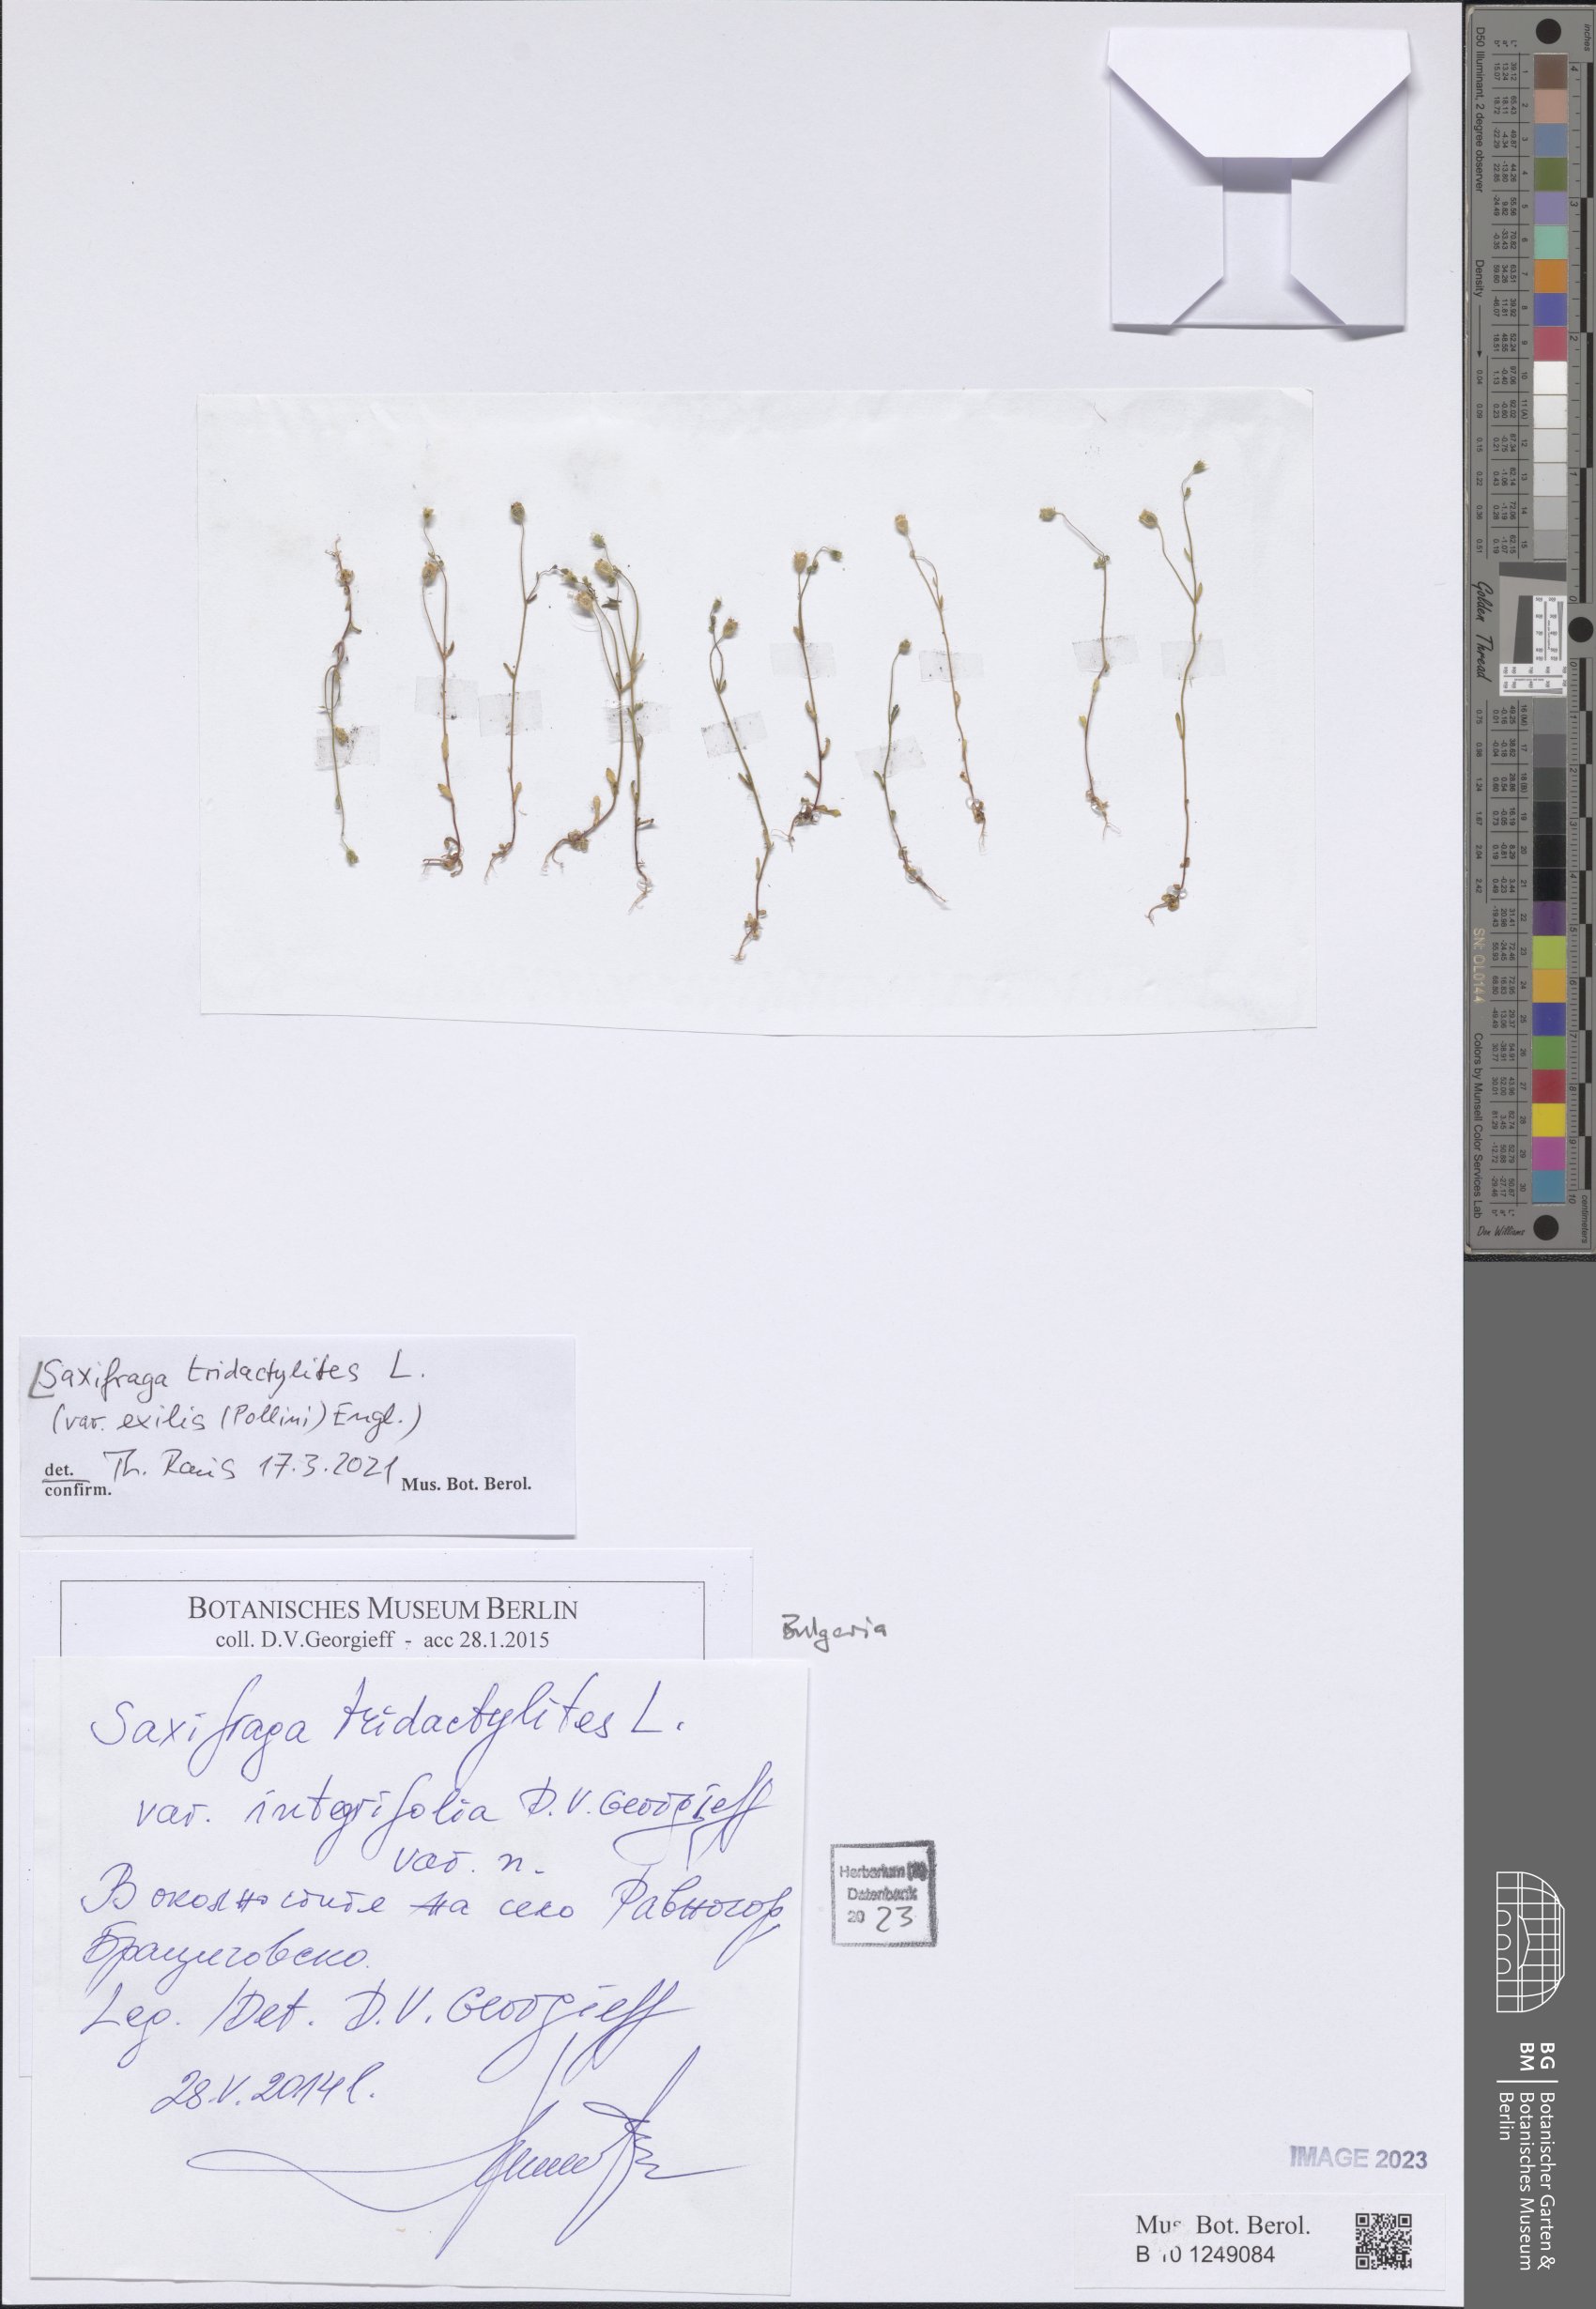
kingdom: Plantae
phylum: Tracheophyta
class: Magnoliopsida
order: Saxifragales
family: Saxifragaceae
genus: Saxifraga
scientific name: Saxifraga tridactylites
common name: Rue-leaved saxifrage
